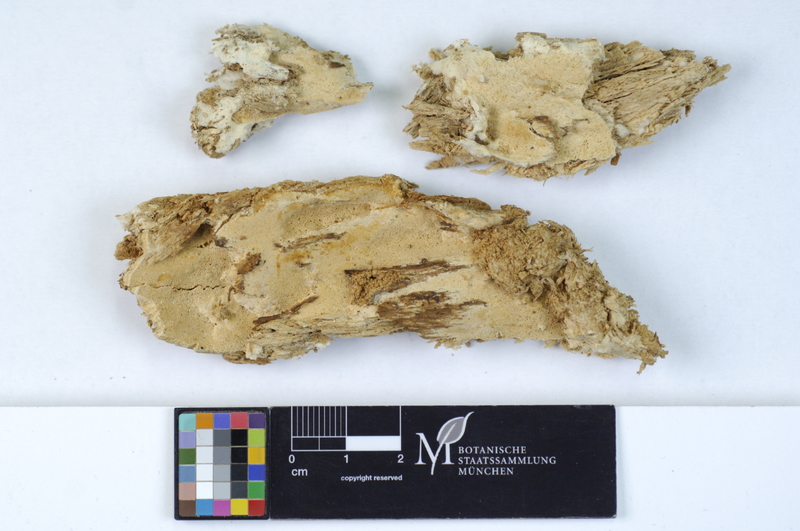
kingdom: Plantae
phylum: Tracheophyta
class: Pinopsida
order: Pinales
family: Pinaceae
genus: Abies
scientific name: Abies alba
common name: Silver fir
